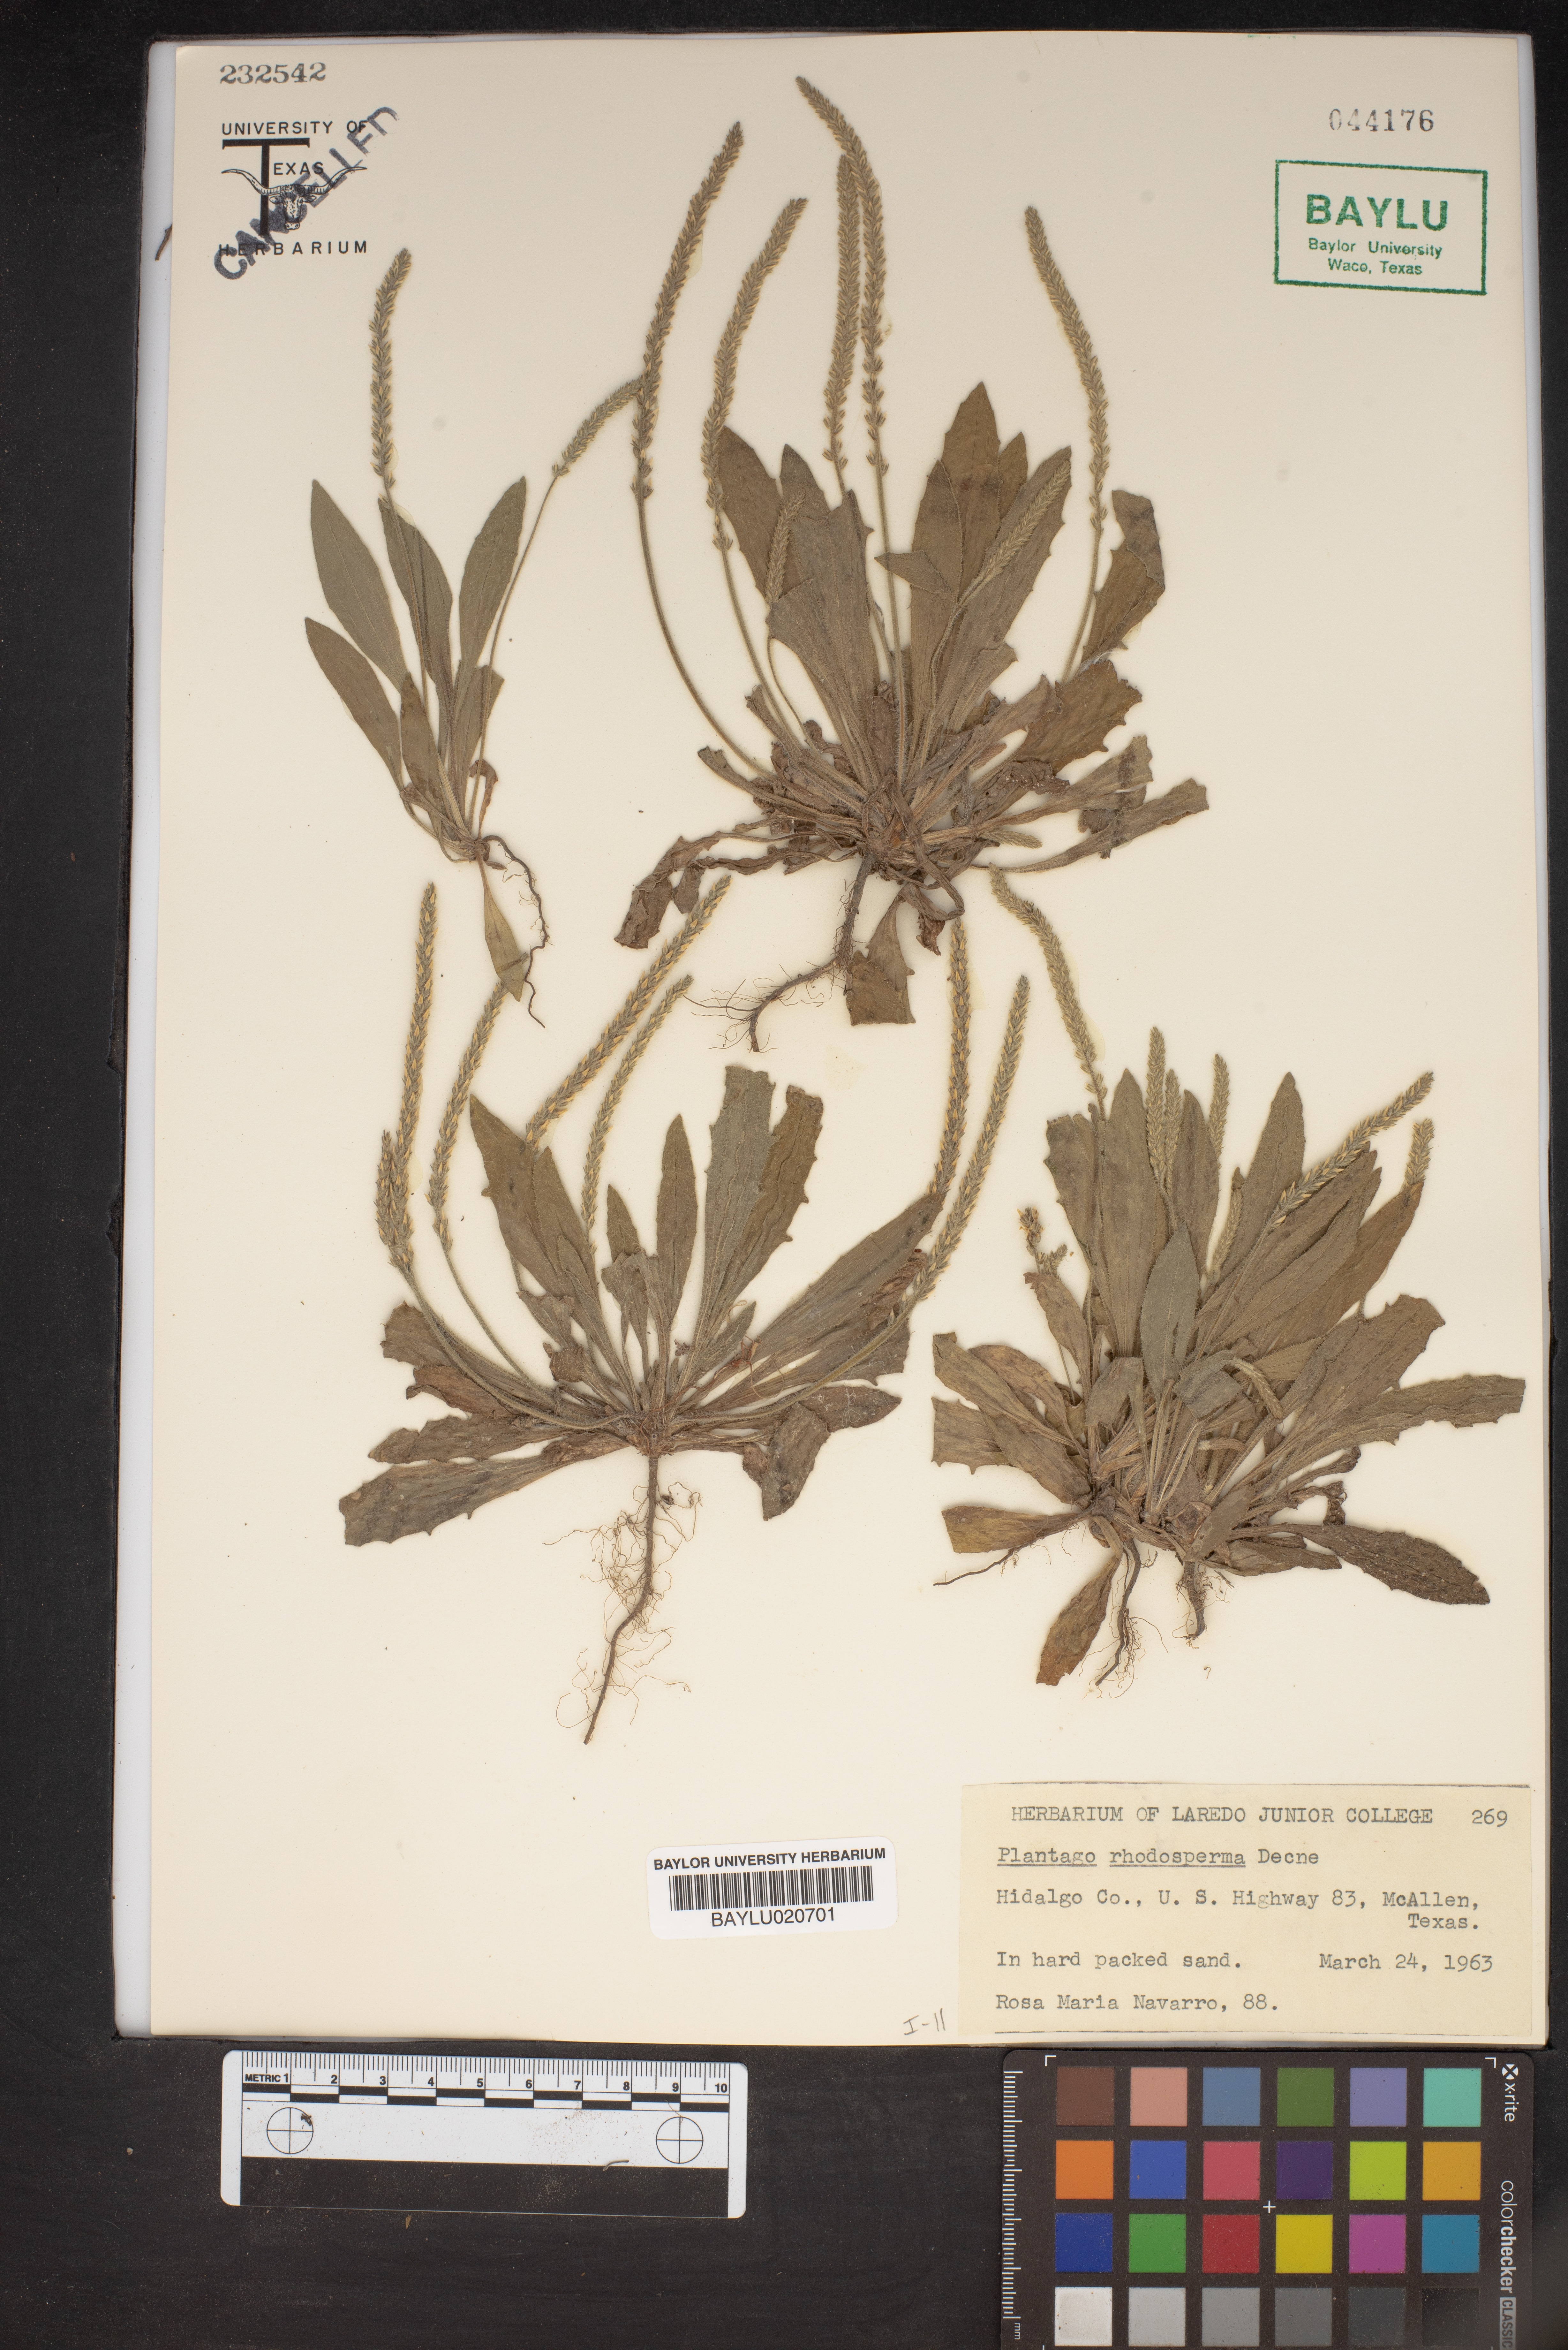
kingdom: Plantae
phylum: Tracheophyta
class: Magnoliopsida
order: Lamiales
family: Plantaginaceae
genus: Plantago
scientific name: Plantago rhodosperma
